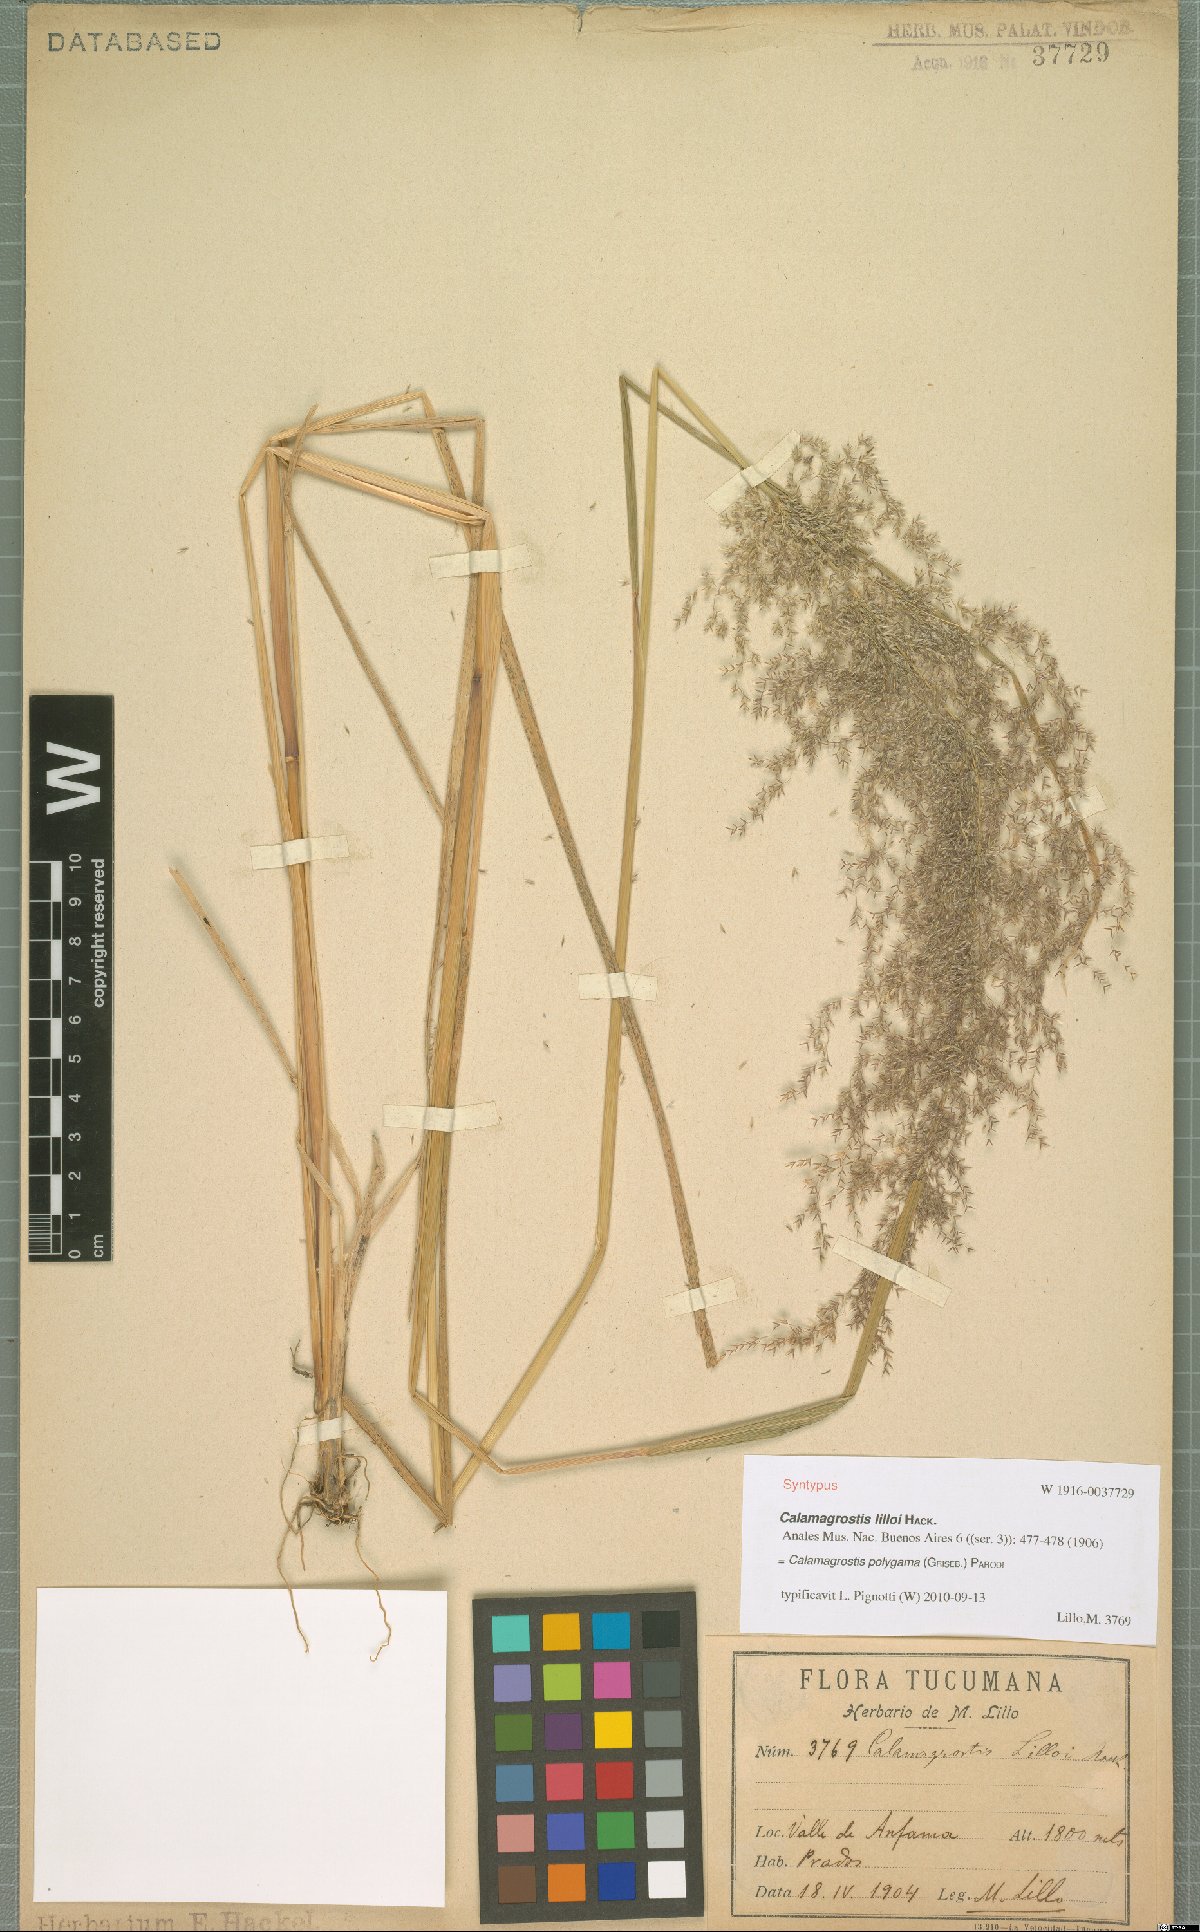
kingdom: Plantae
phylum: Tracheophyta
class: Liliopsida
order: Poales
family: Poaceae
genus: Cinnagrostis
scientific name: Cinnagrostis polygama
